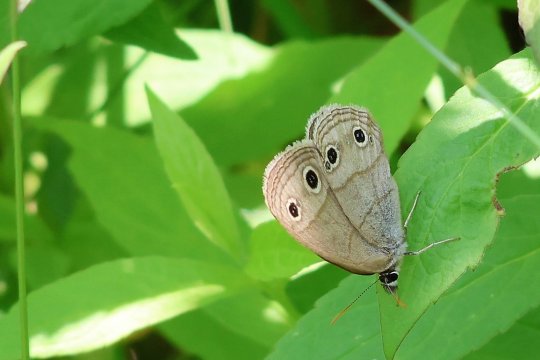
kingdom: Animalia
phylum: Arthropoda
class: Insecta
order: Lepidoptera
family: Nymphalidae
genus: Euptychia
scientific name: Euptychia cymela
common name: Little Wood Satyr
